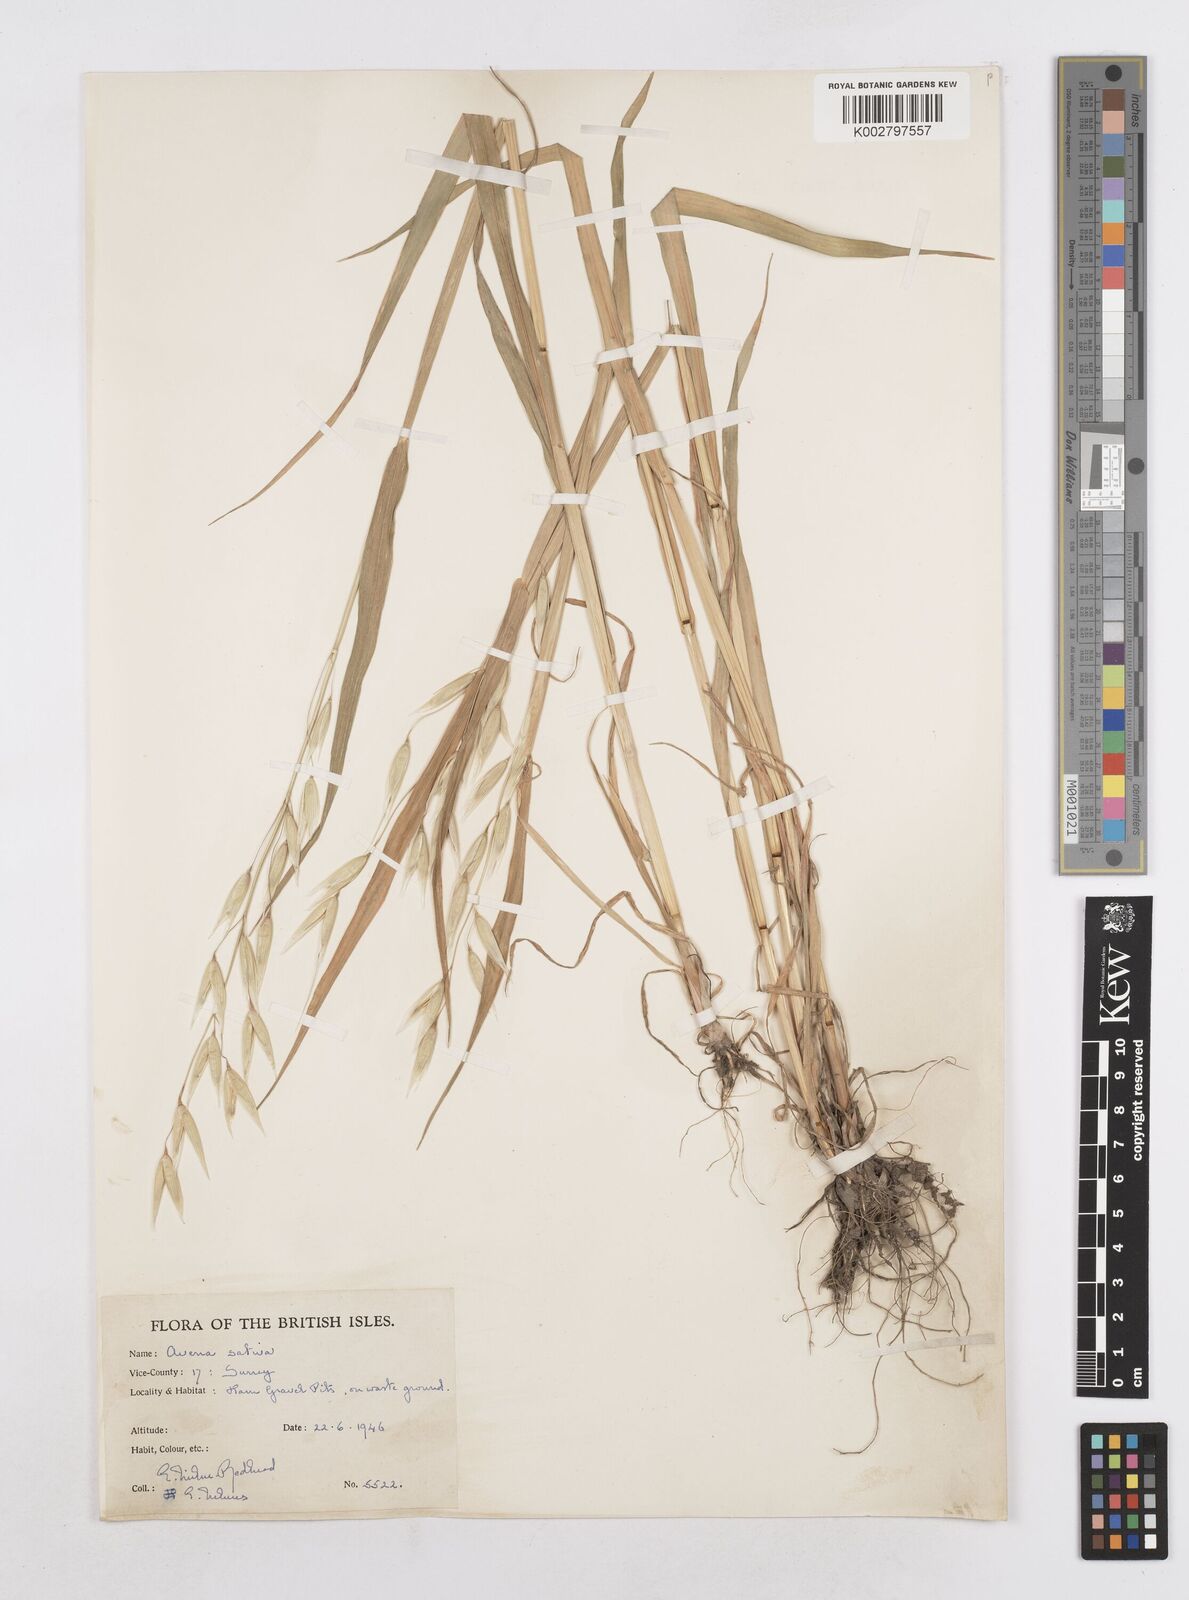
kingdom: Plantae
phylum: Tracheophyta
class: Liliopsida
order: Poales
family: Poaceae
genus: Avena
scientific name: Avena
